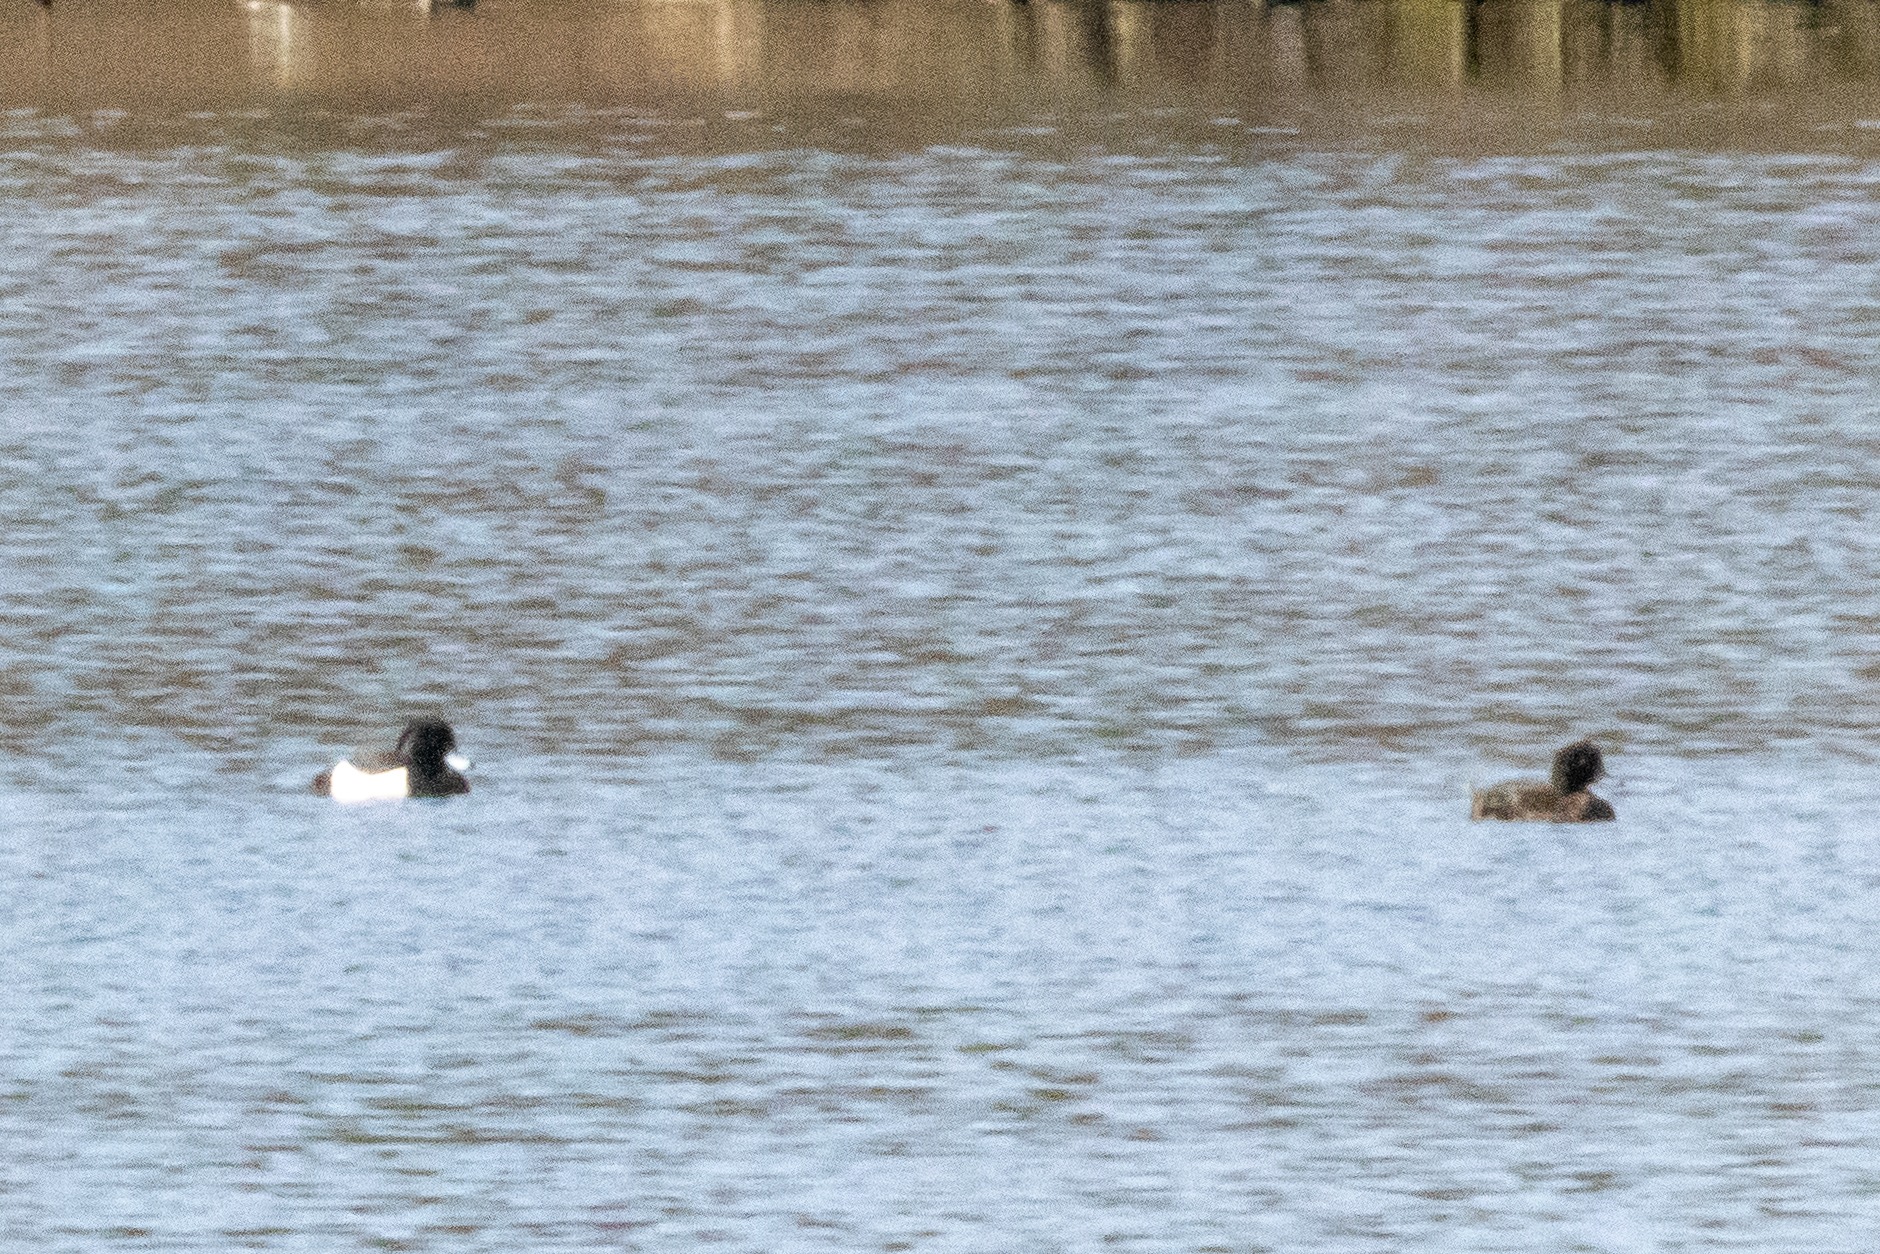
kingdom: Animalia
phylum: Chordata
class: Aves
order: Anseriformes
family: Anatidae
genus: Aythya
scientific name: Aythya fuligula
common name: Troldand
